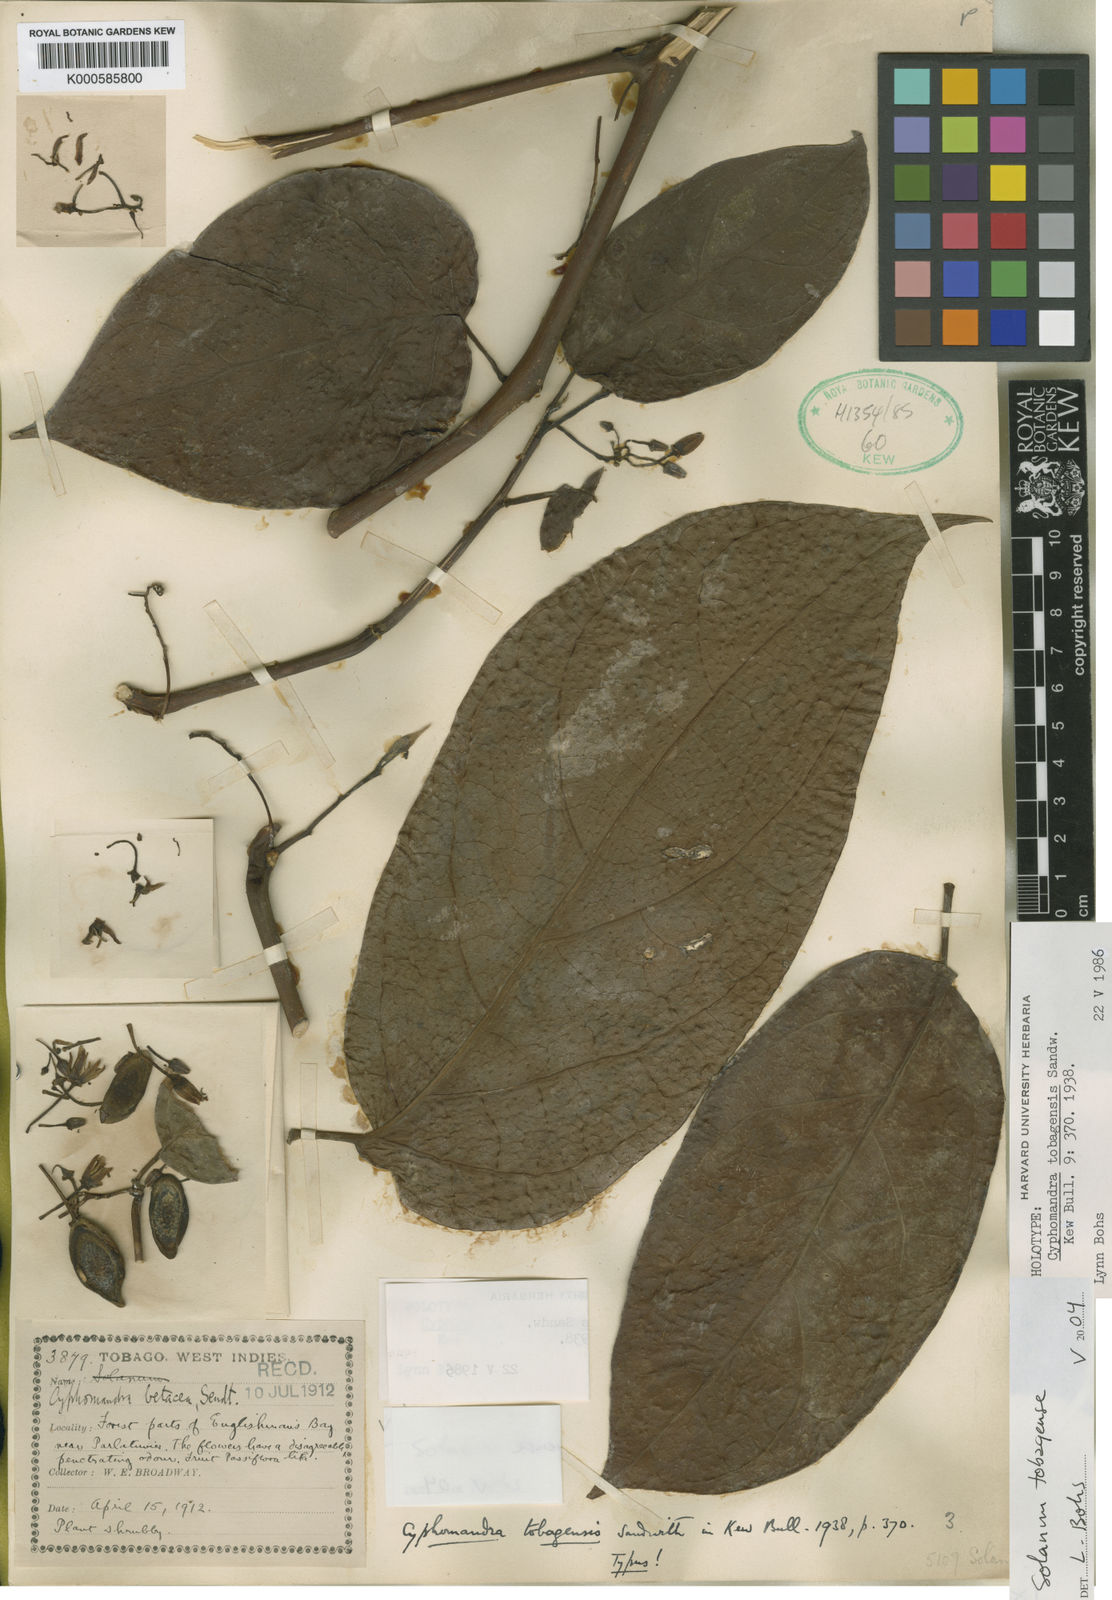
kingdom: Plantae
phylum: Tracheophyta
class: Magnoliopsida
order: Solanales
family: Solanaceae
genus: Solanum
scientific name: Solanum tobagense
